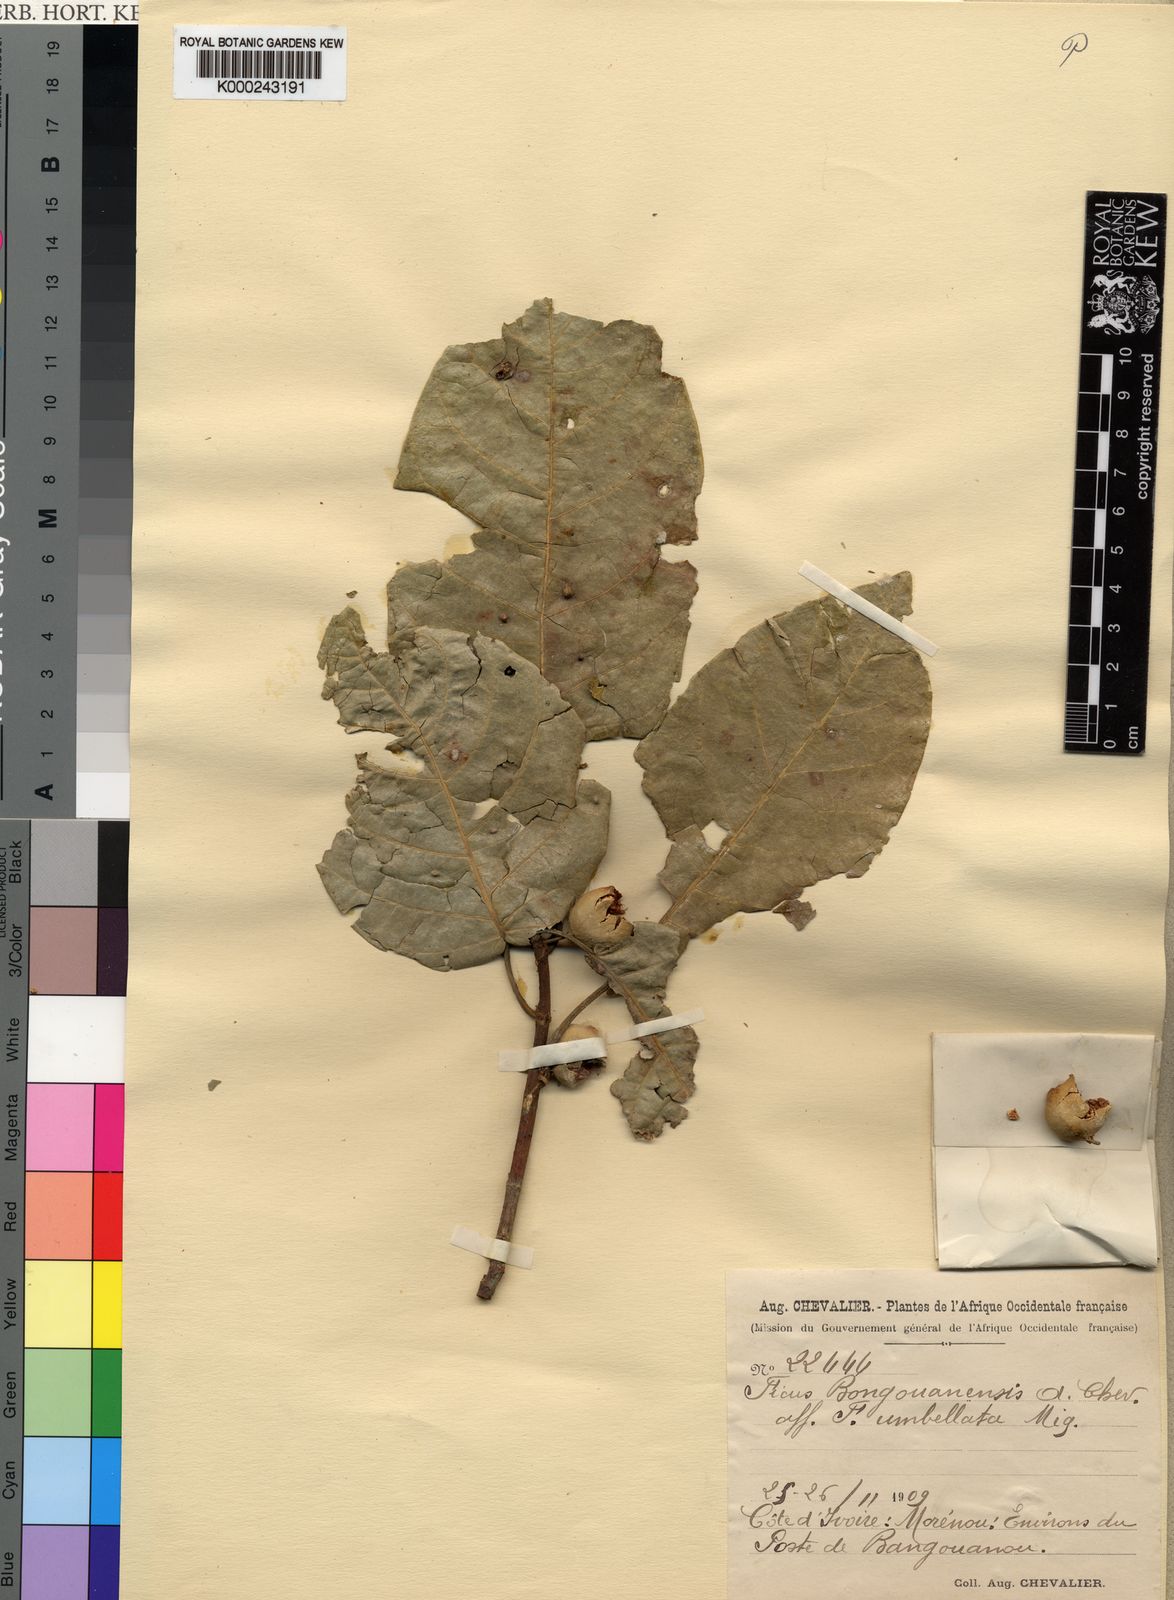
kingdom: Plantae
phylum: Tracheophyta
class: Magnoliopsida
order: Rosales
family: Moraceae
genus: Ficus
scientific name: Ficus
